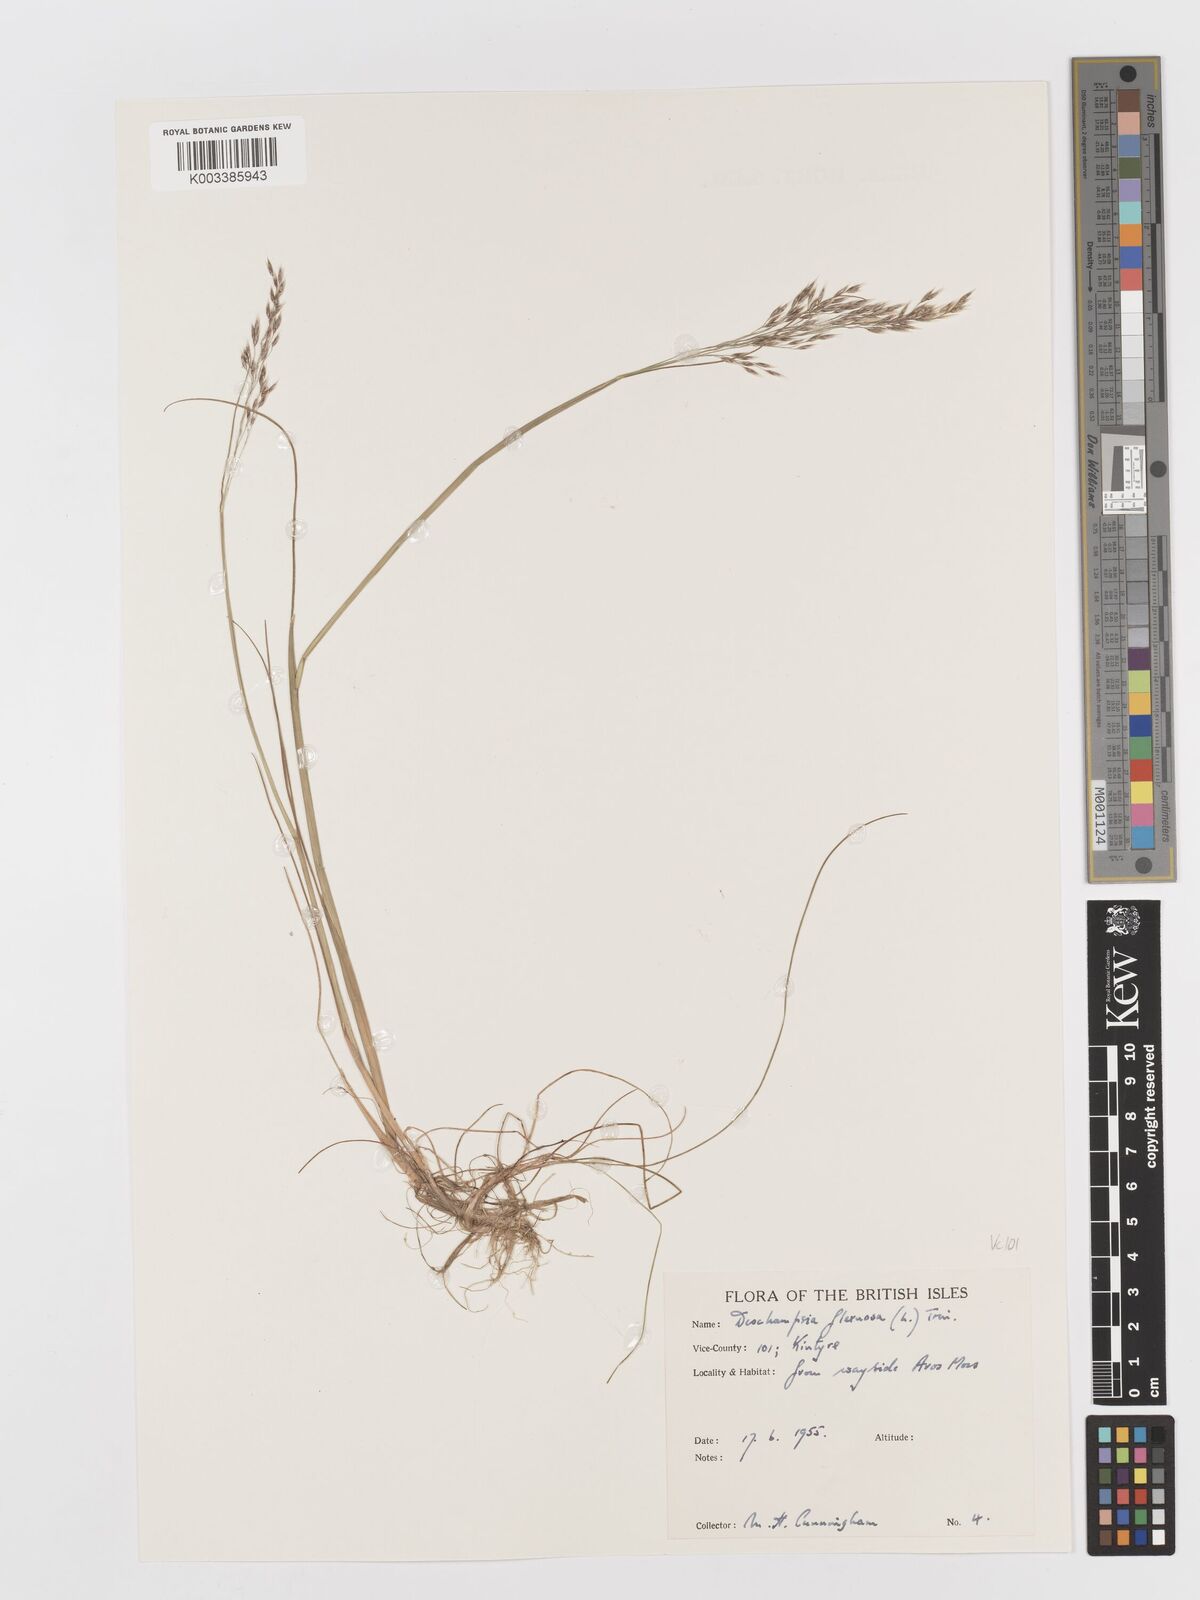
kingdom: Plantae
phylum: Tracheophyta
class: Liliopsida
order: Poales
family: Poaceae
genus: Avenella
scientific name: Avenella flexuosa
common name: Wavy hairgrass
